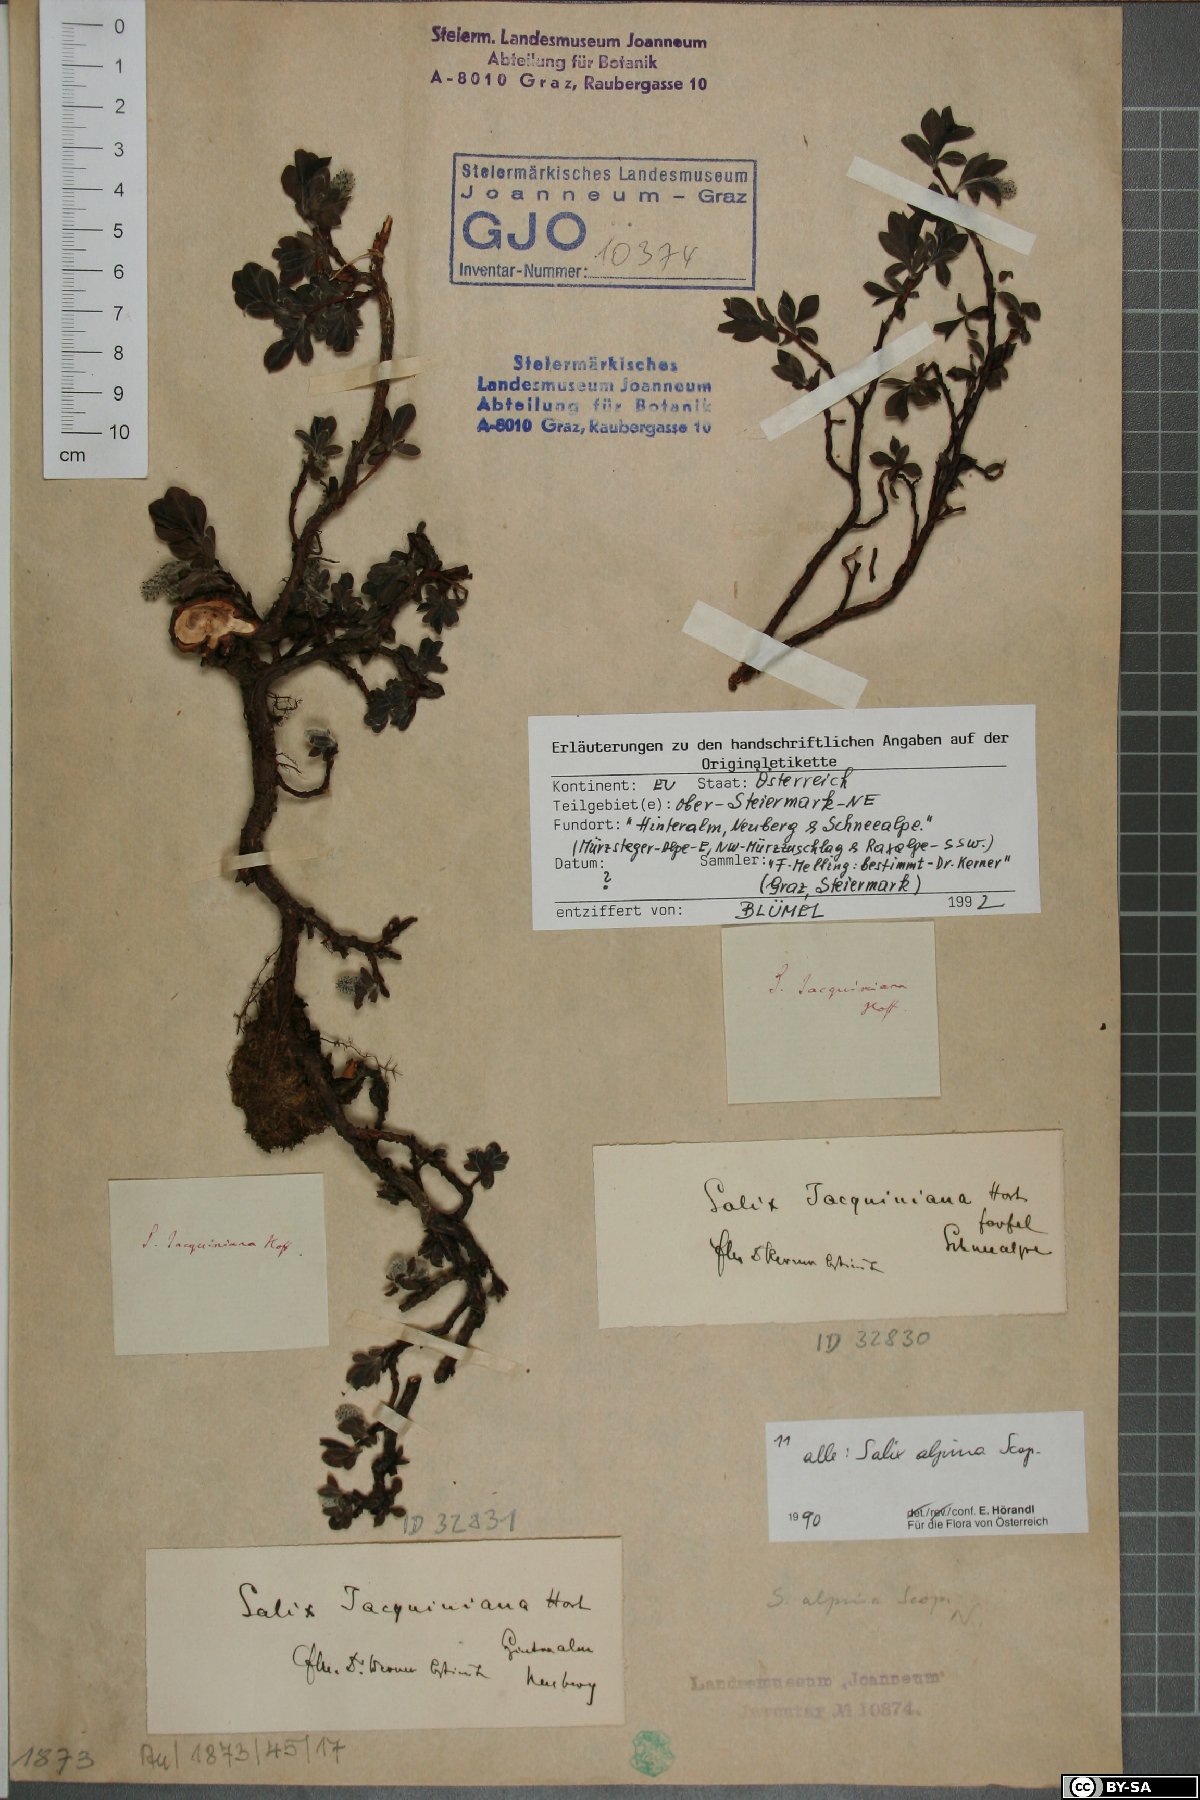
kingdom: Plantae
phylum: Tracheophyta
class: Magnoliopsida
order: Malpighiales
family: Salicaceae
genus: Salix
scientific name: Salix alpina
